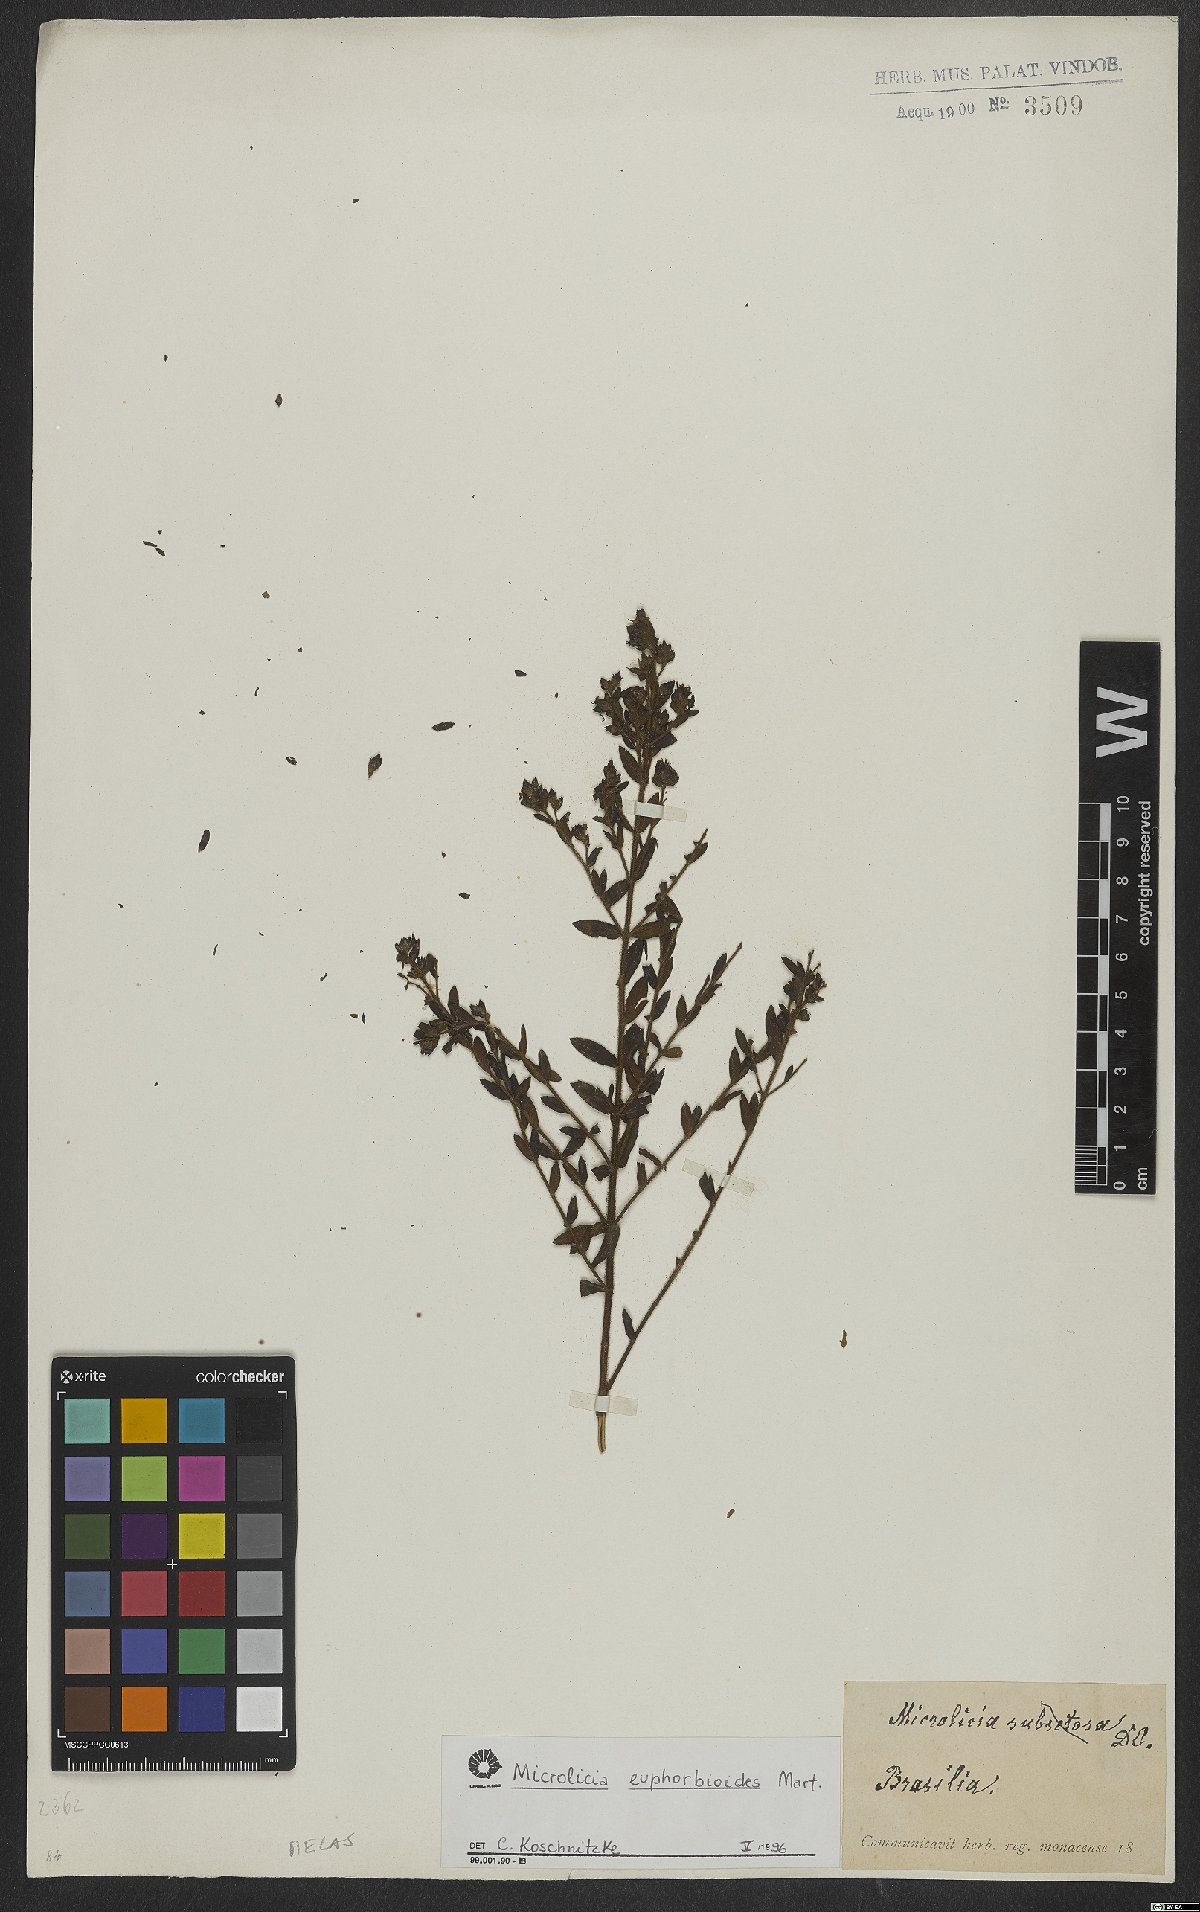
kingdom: Plantae
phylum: Tracheophyta
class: Magnoliopsida
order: Myrtales
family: Melastomataceae
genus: Microlicia
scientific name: Microlicia euphorbioides
